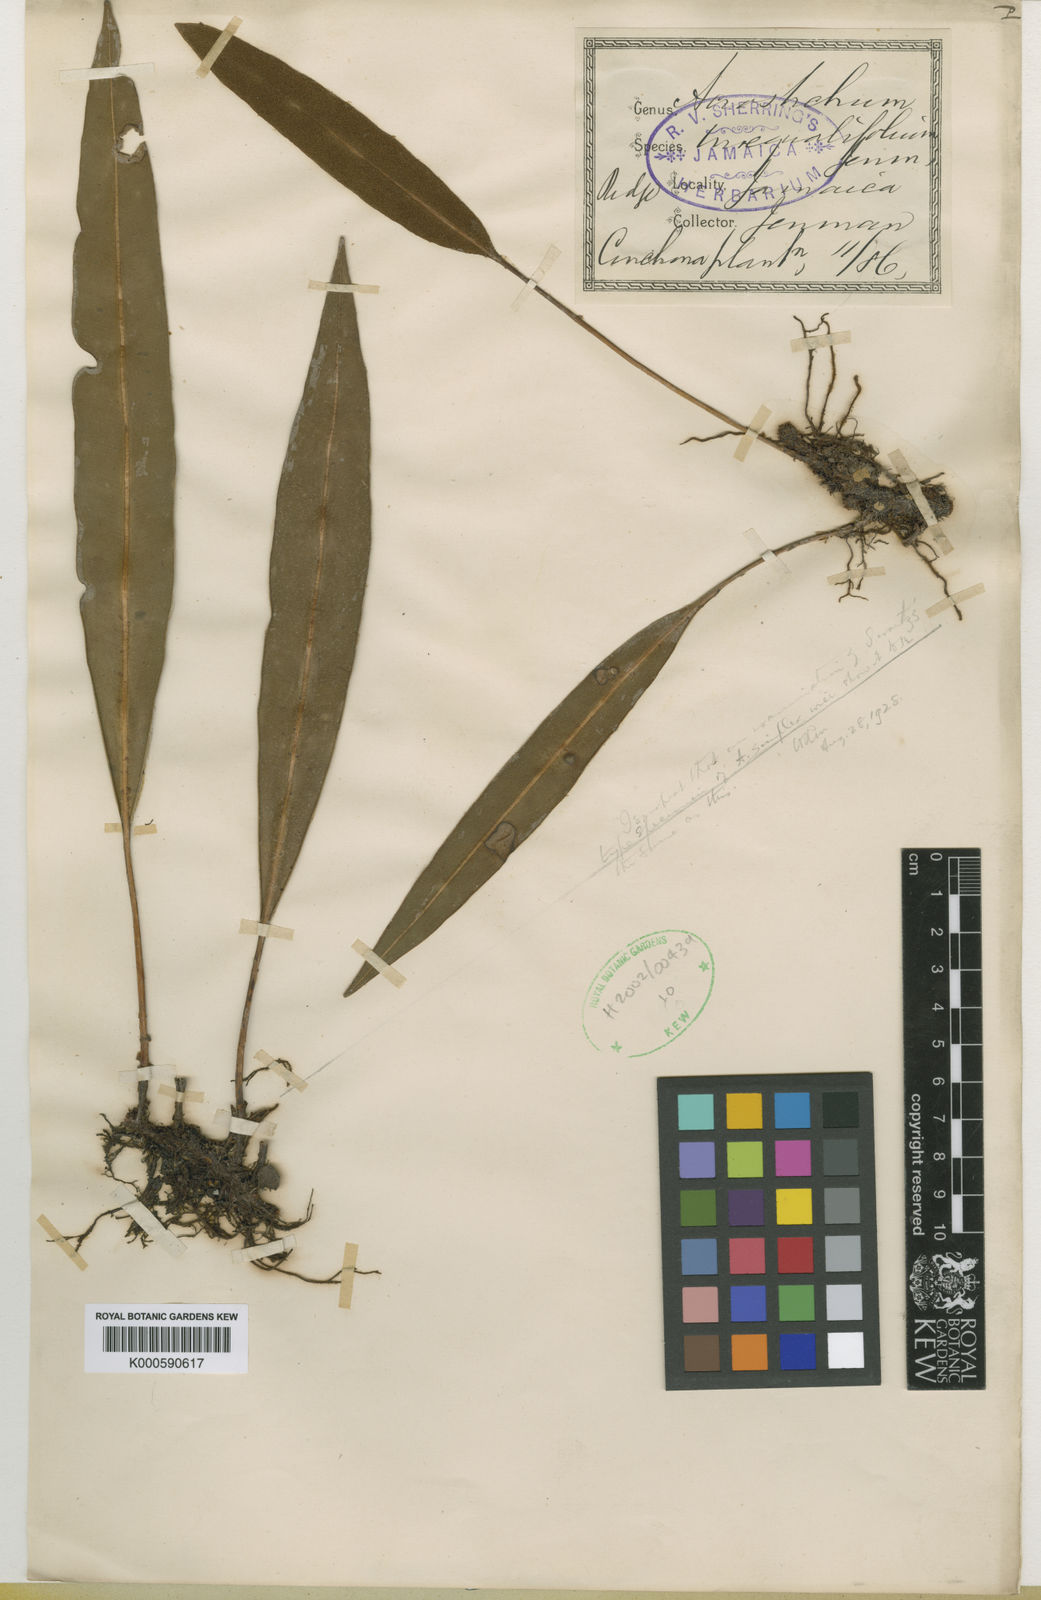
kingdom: Plantae
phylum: Tracheophyta
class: Polypodiopsida
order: Polypodiales
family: Dryopteridaceae
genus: Elaphoglossum
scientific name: Elaphoglossum inaequalifolium
